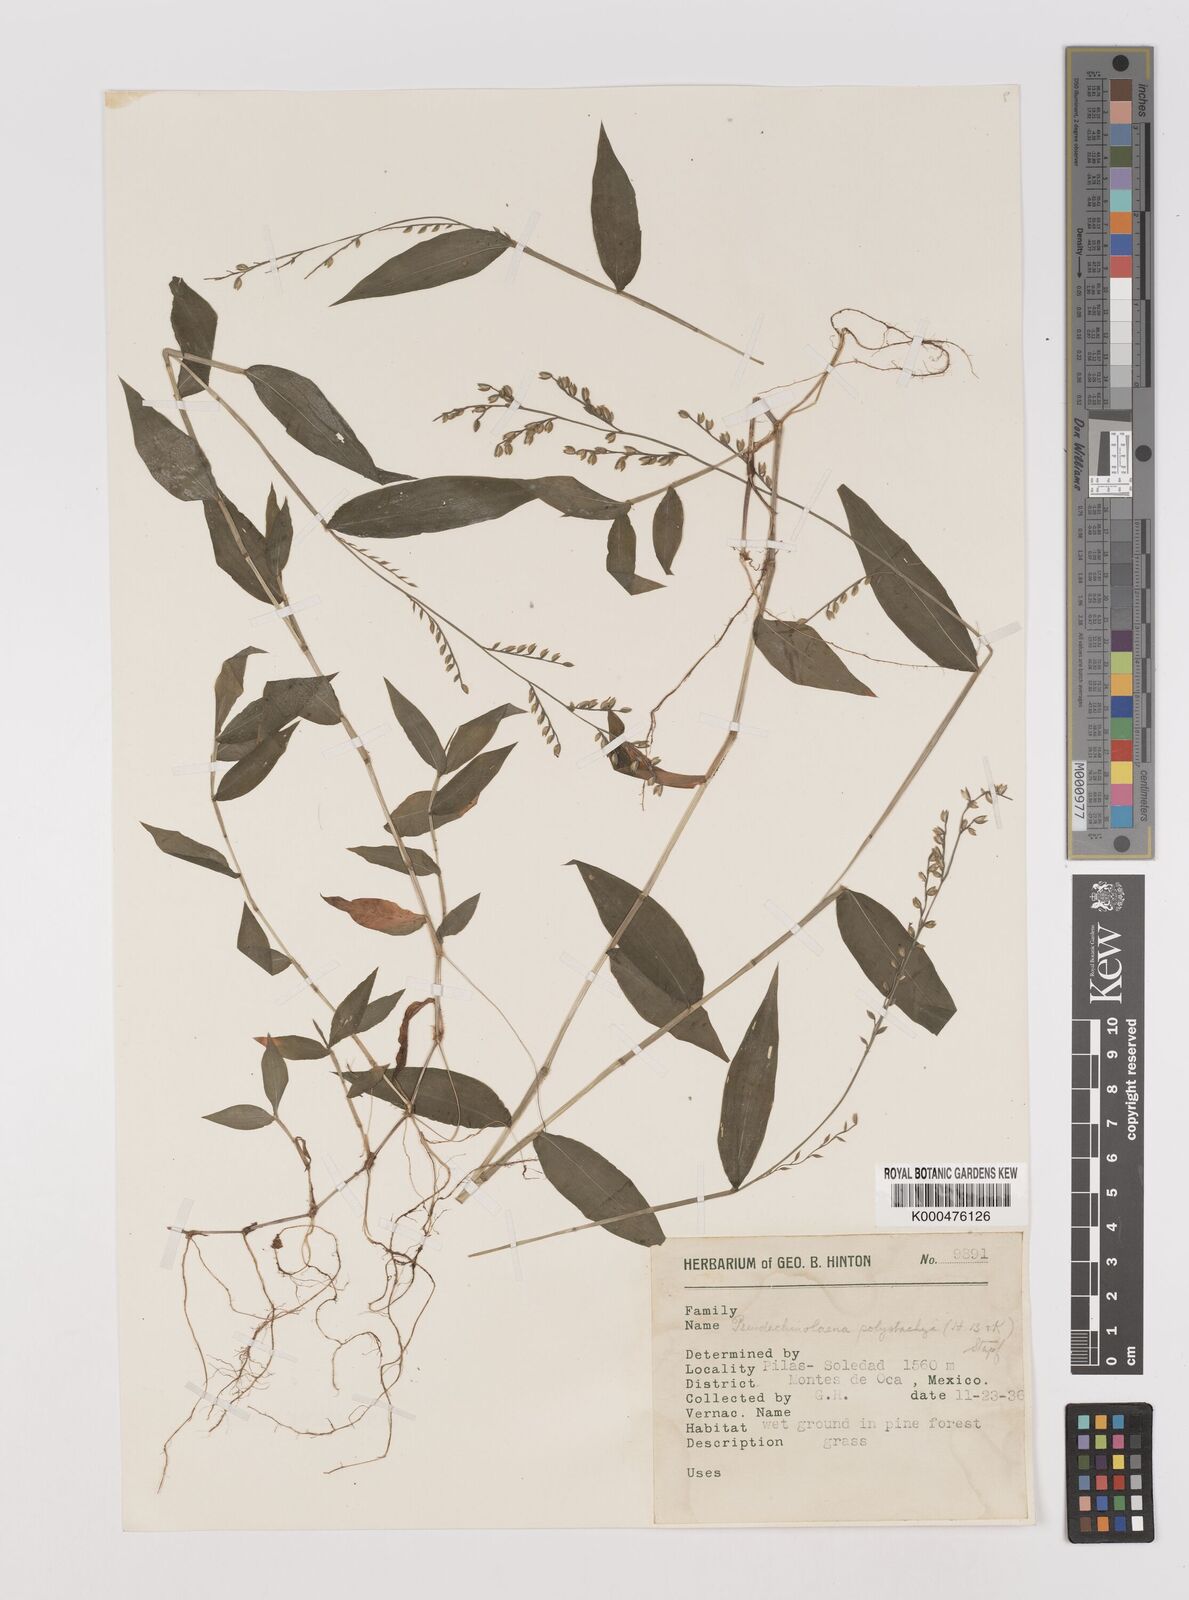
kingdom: Plantae
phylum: Tracheophyta
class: Liliopsida
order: Poales
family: Poaceae
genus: Pseudechinolaena
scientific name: Pseudechinolaena polystachya
